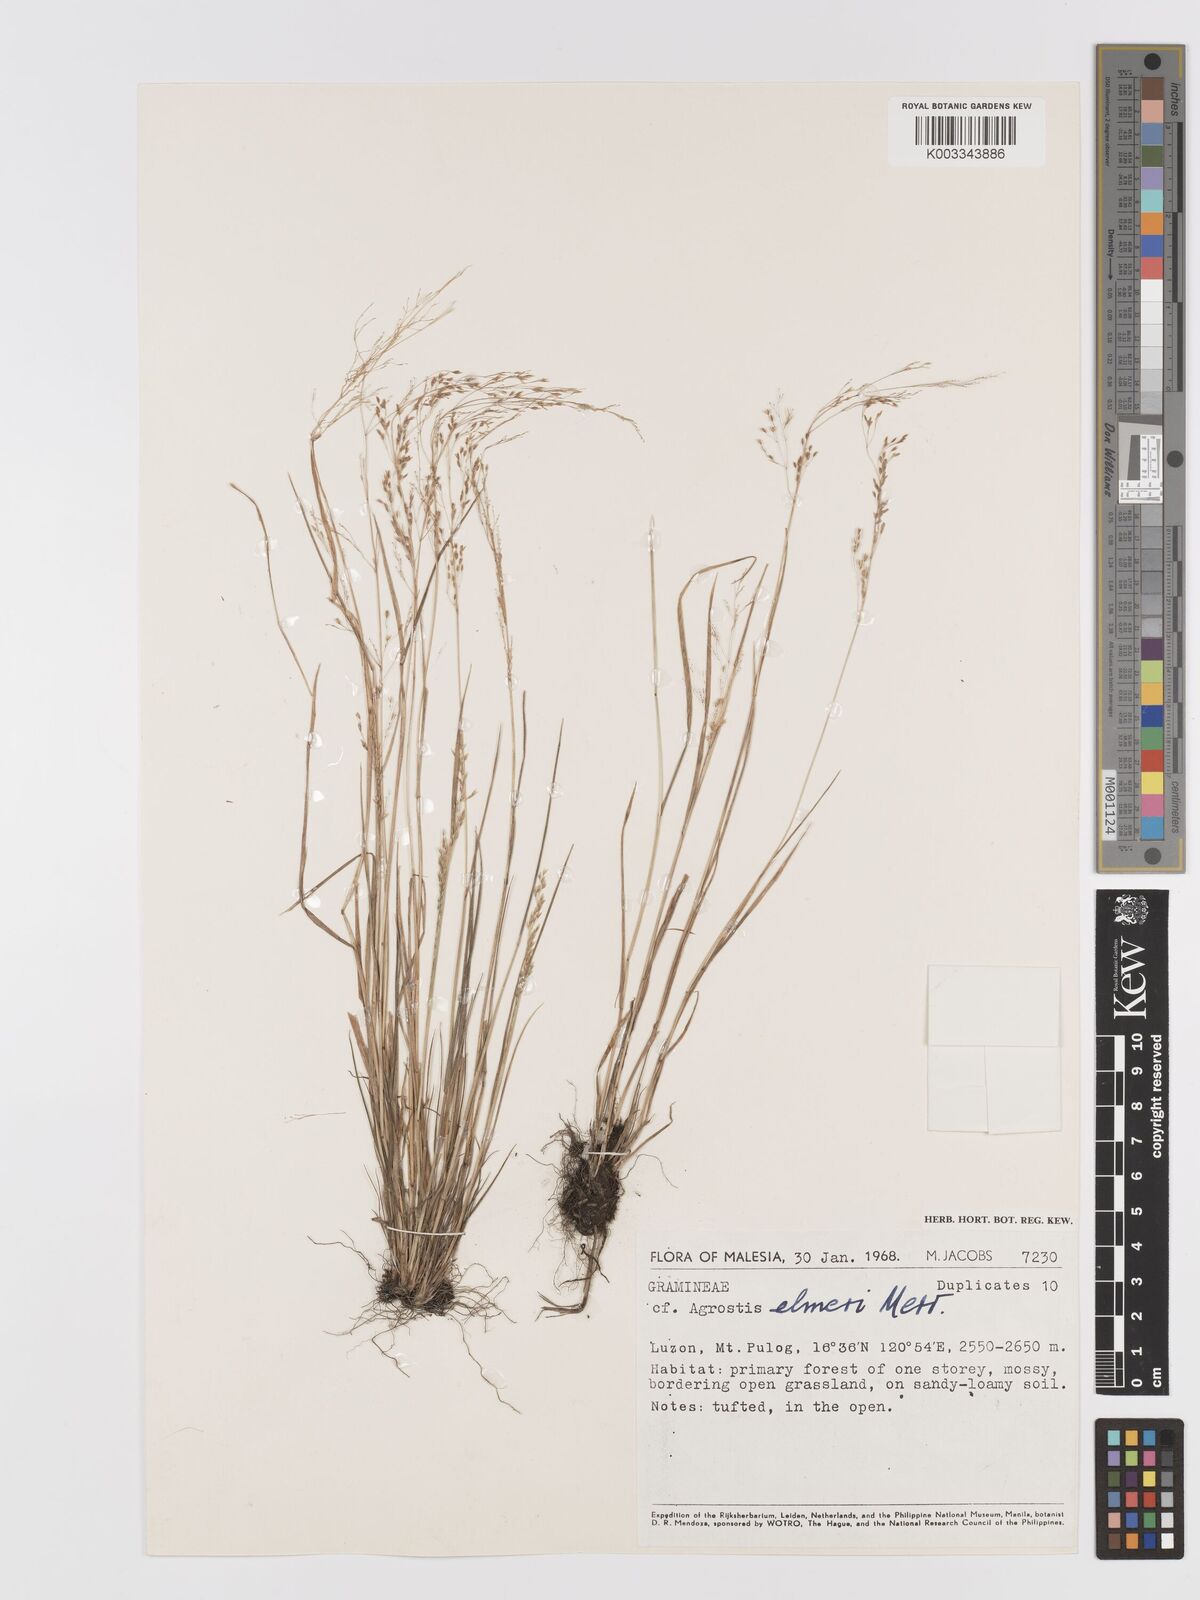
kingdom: Plantae
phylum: Tracheophyta
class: Liliopsida
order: Poales
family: Poaceae
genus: Agrostis
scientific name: Agrostis infirma
